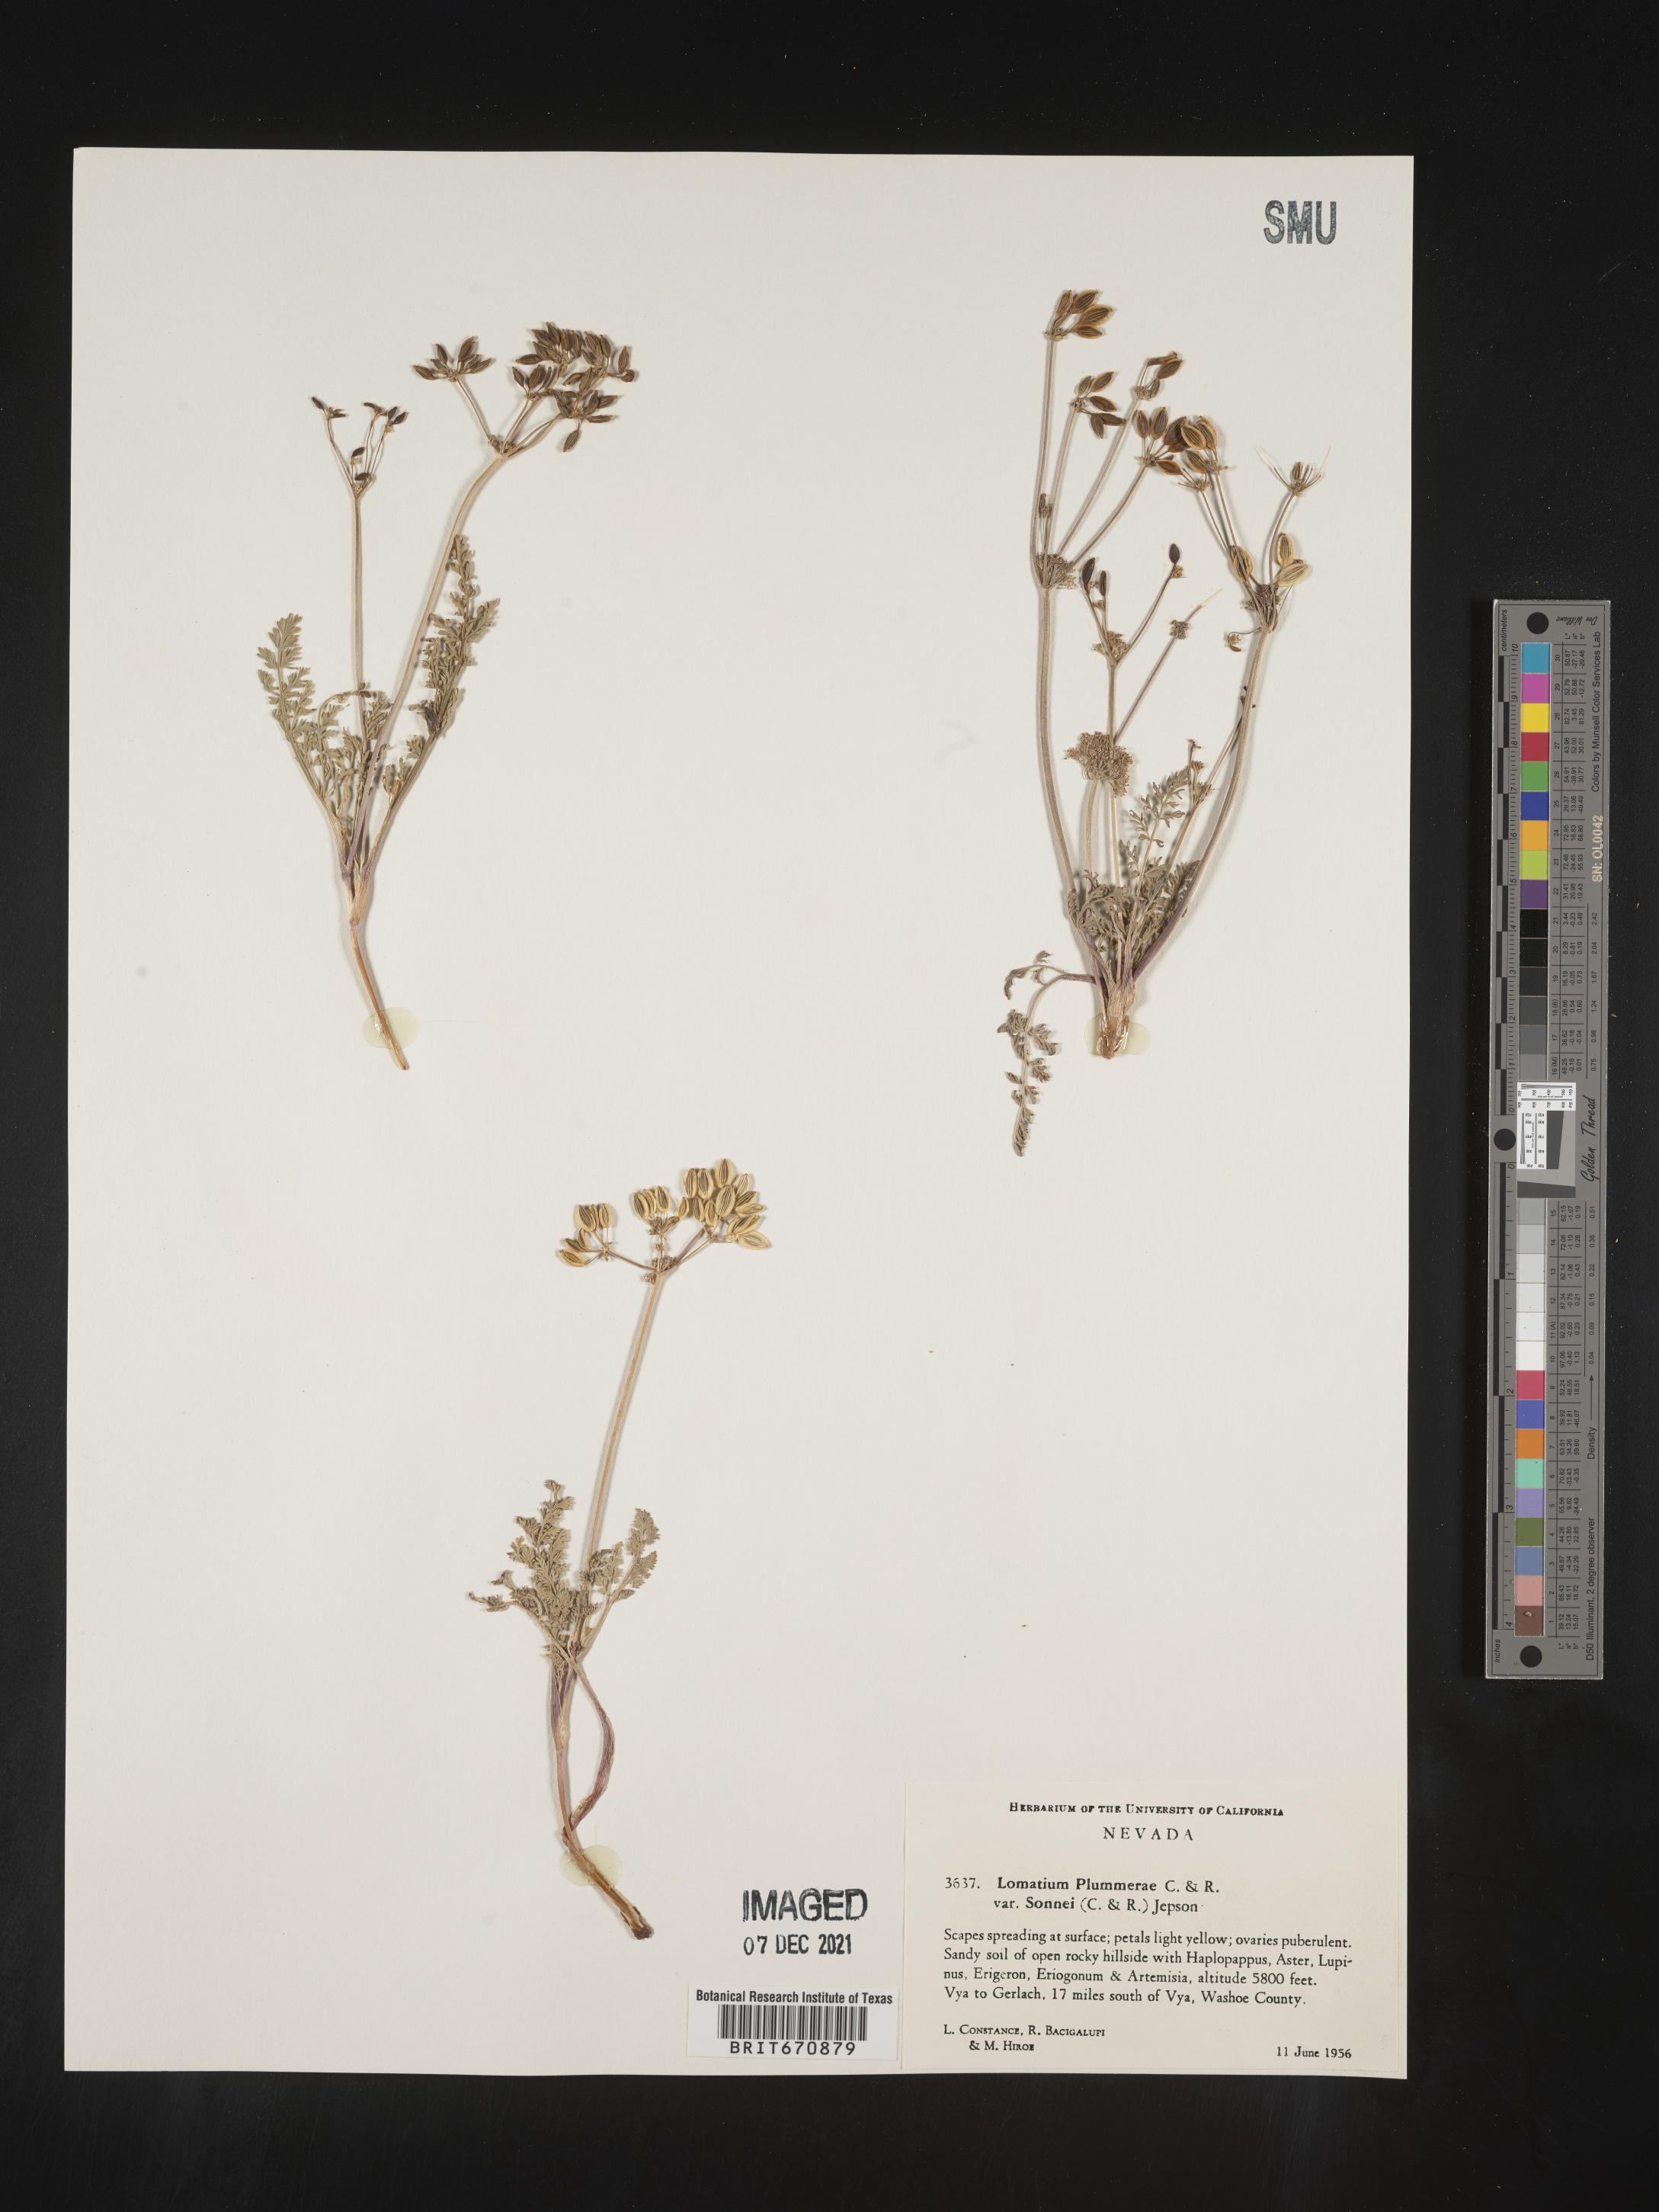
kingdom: Plantae
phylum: Tracheophyta
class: Magnoliopsida
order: Apiales
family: Apiaceae
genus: Lomatium
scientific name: Lomatium
